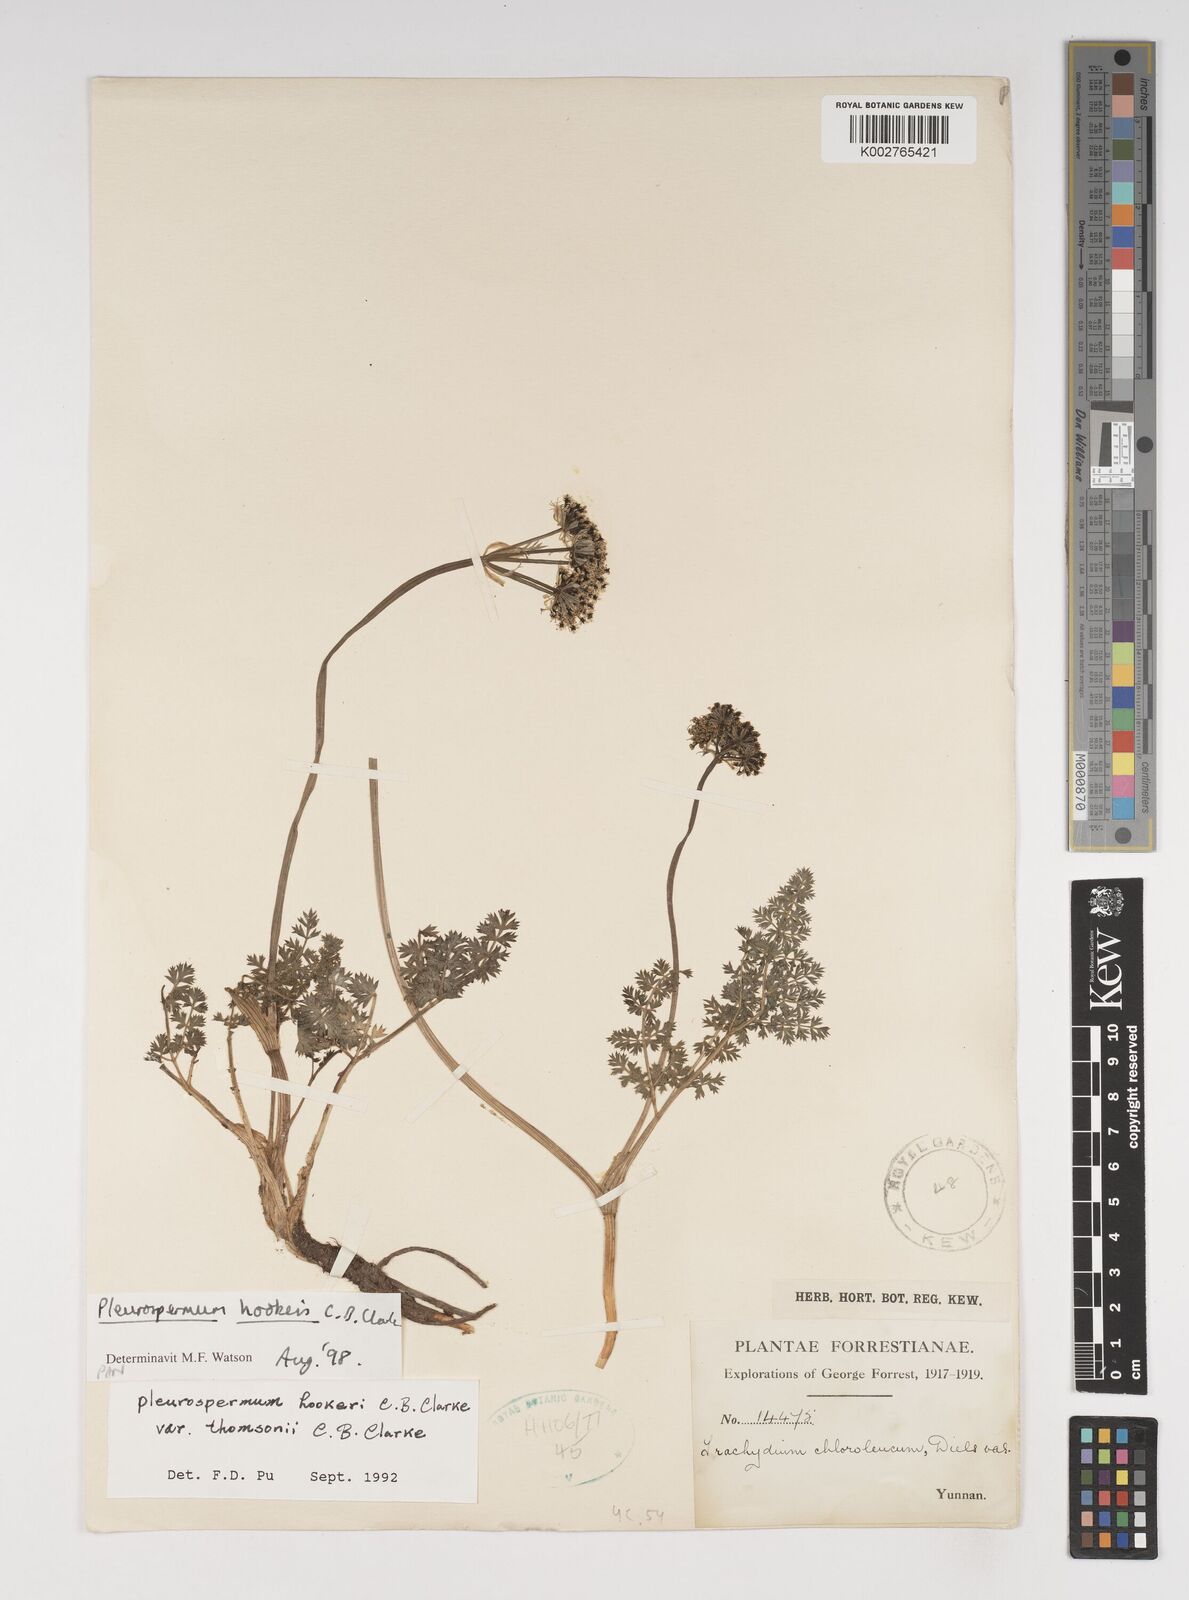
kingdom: Plantae
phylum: Tracheophyta
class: Magnoliopsida
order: Apiales
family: Apiaceae
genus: Pleurospermum
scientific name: Pleurospermum hookeri
